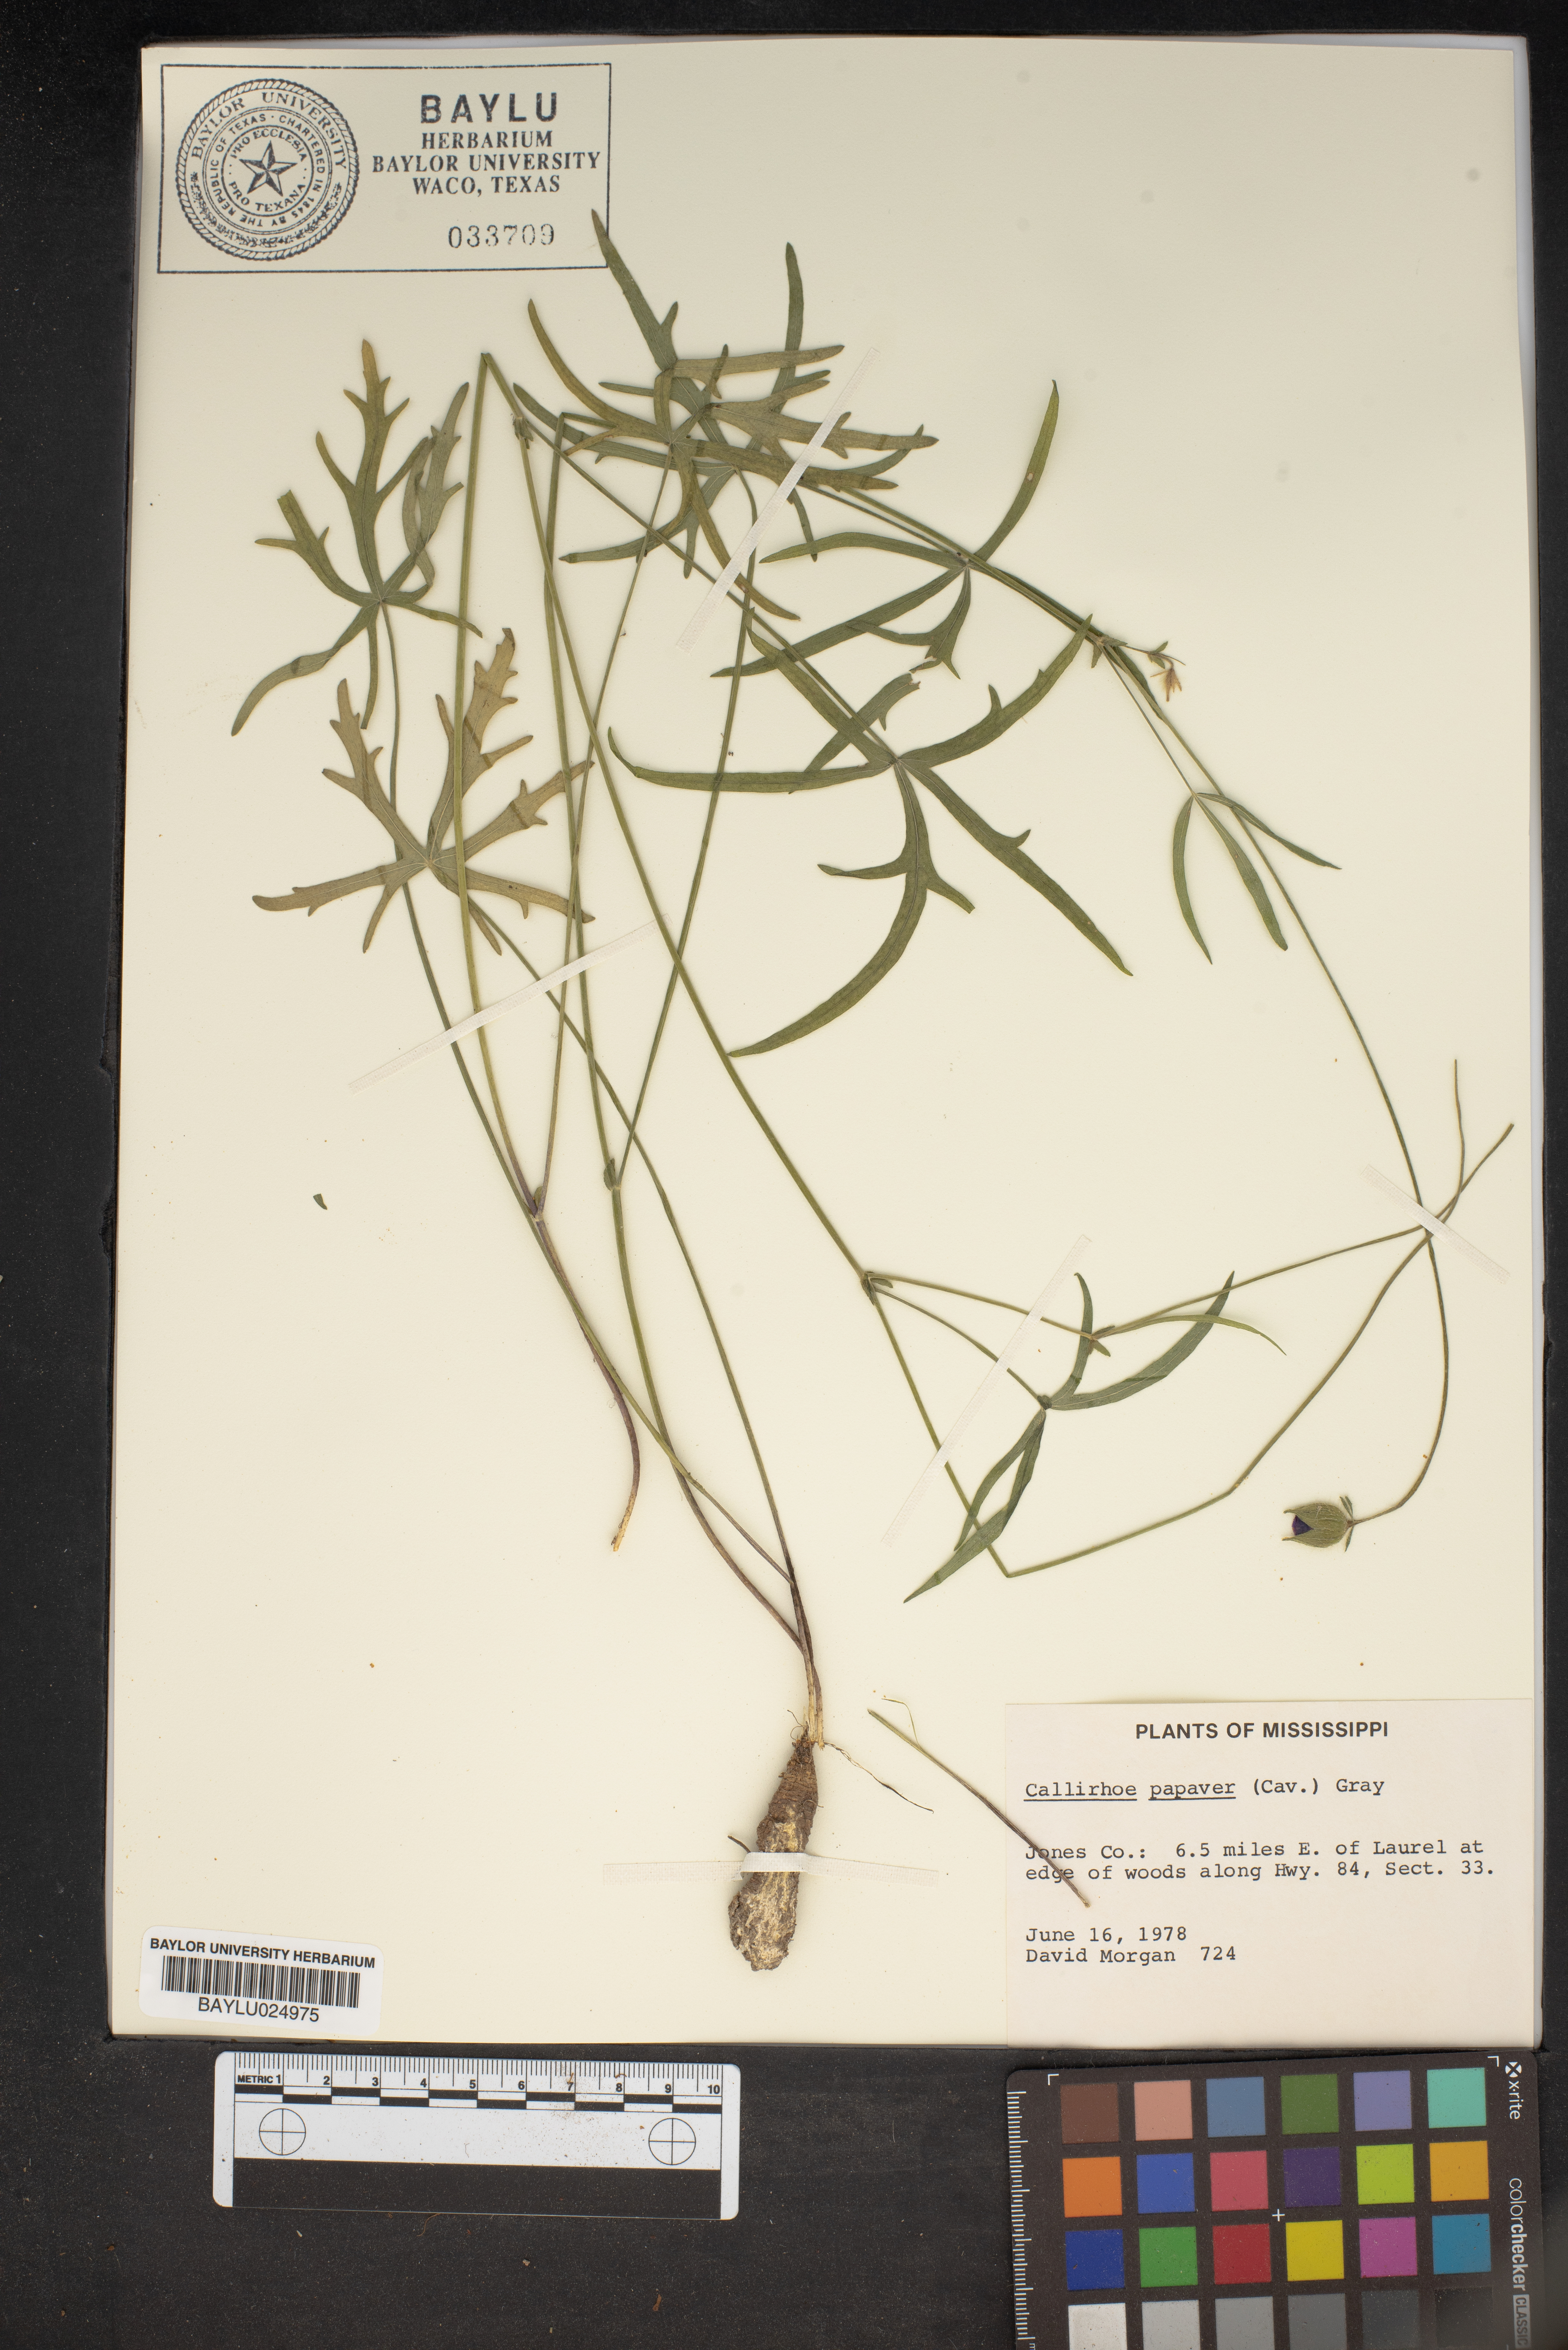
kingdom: Plantae
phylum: Tracheophyta
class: Magnoliopsida
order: Malvales
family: Malvaceae
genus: Callirhoe
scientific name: Callirhoe papaver
